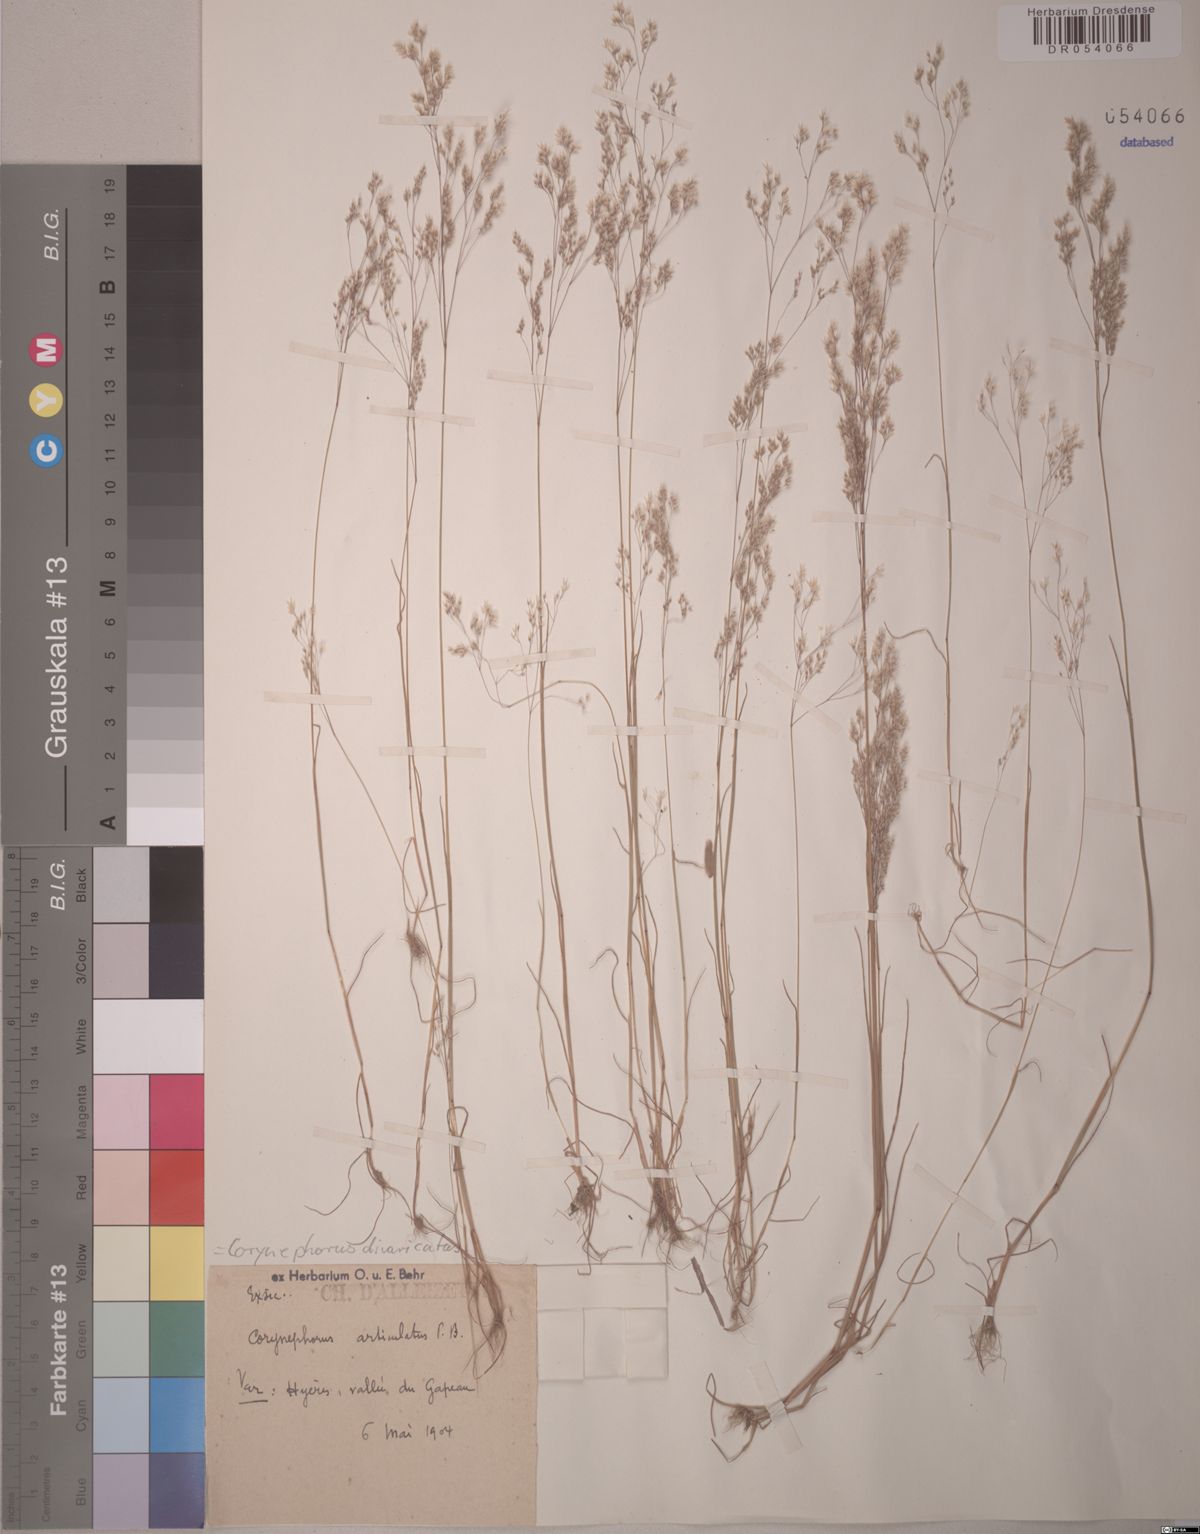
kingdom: Plantae
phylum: Tracheophyta
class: Liliopsida
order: Poales
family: Poaceae
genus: Corynephorus
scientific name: Corynephorus divaricatus
